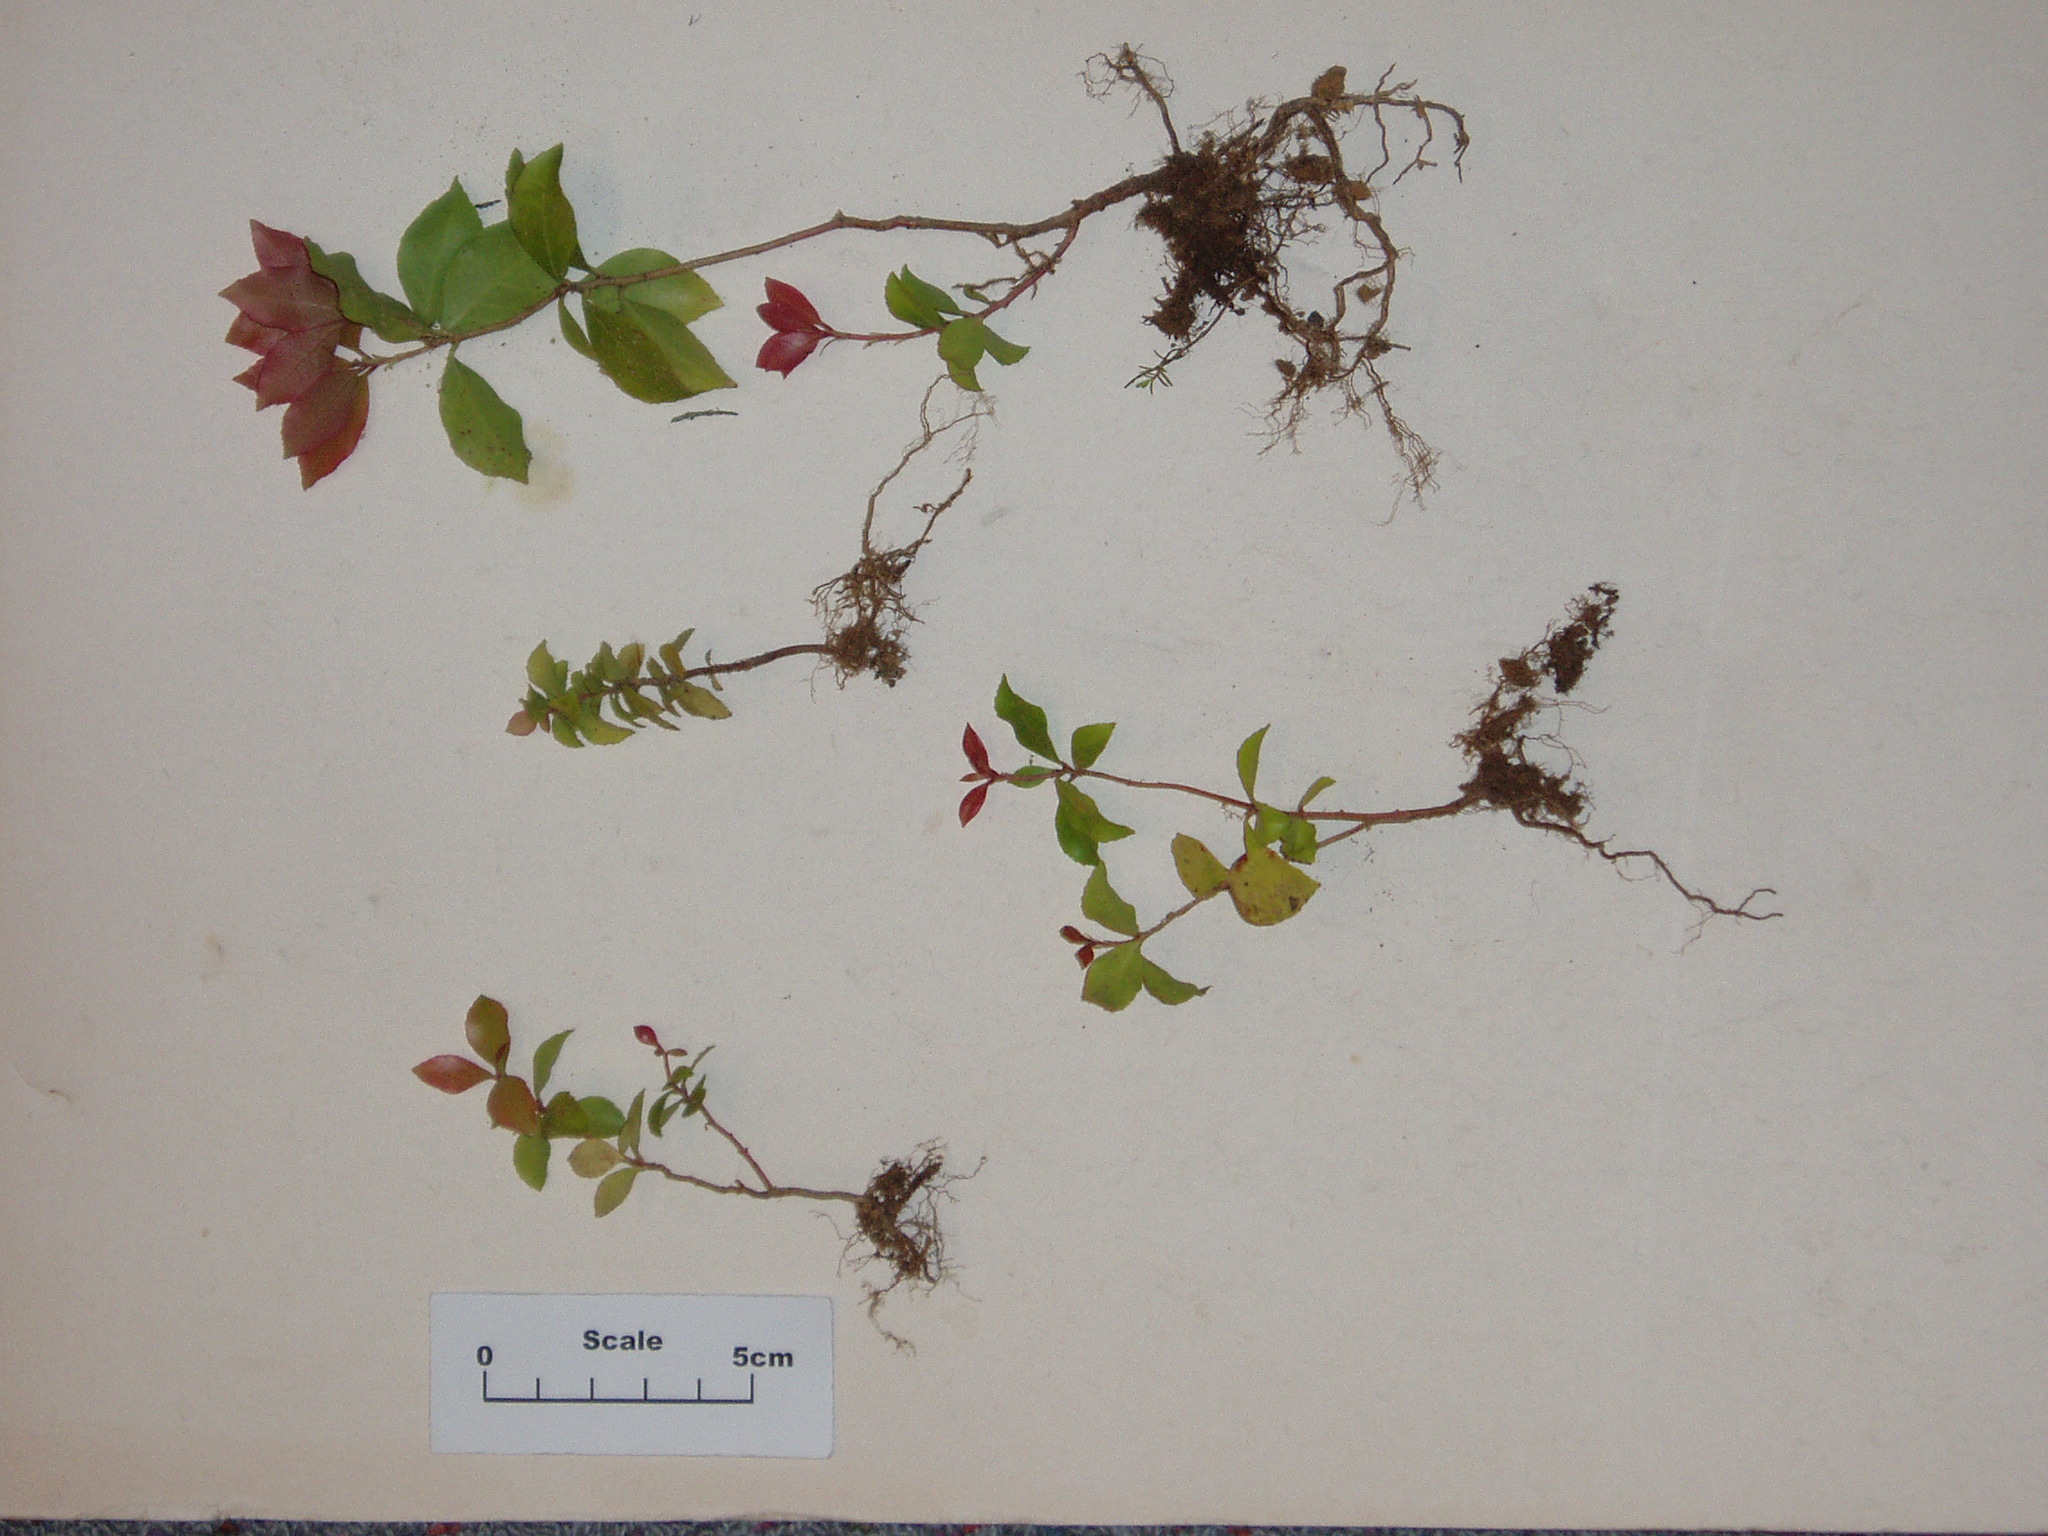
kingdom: Plantae
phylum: Tracheophyta
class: Magnoliopsida
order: Ericales
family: Ericaceae
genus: Pieris
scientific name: Pieris japonica
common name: Japanese pieris
